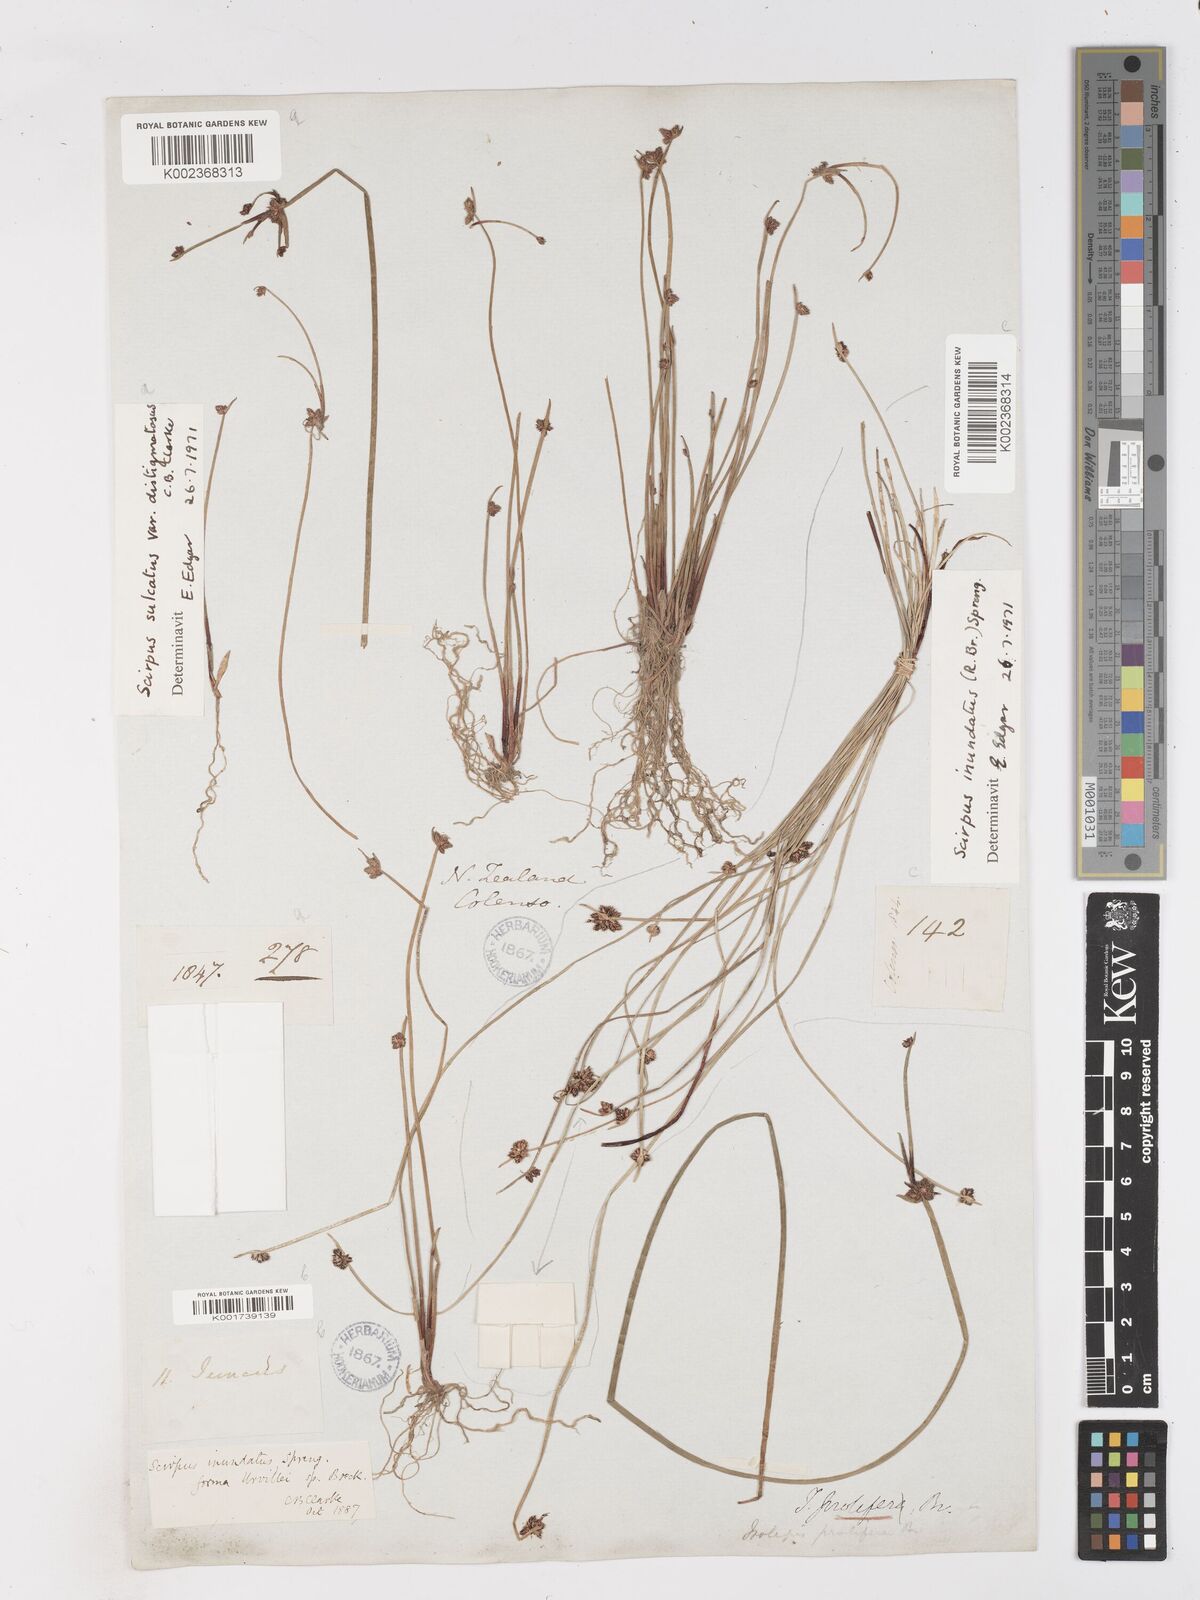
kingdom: Plantae
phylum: Tracheophyta
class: Liliopsida
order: Poales
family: Cyperaceae
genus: Isolepis
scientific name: Isolepis sulcata
